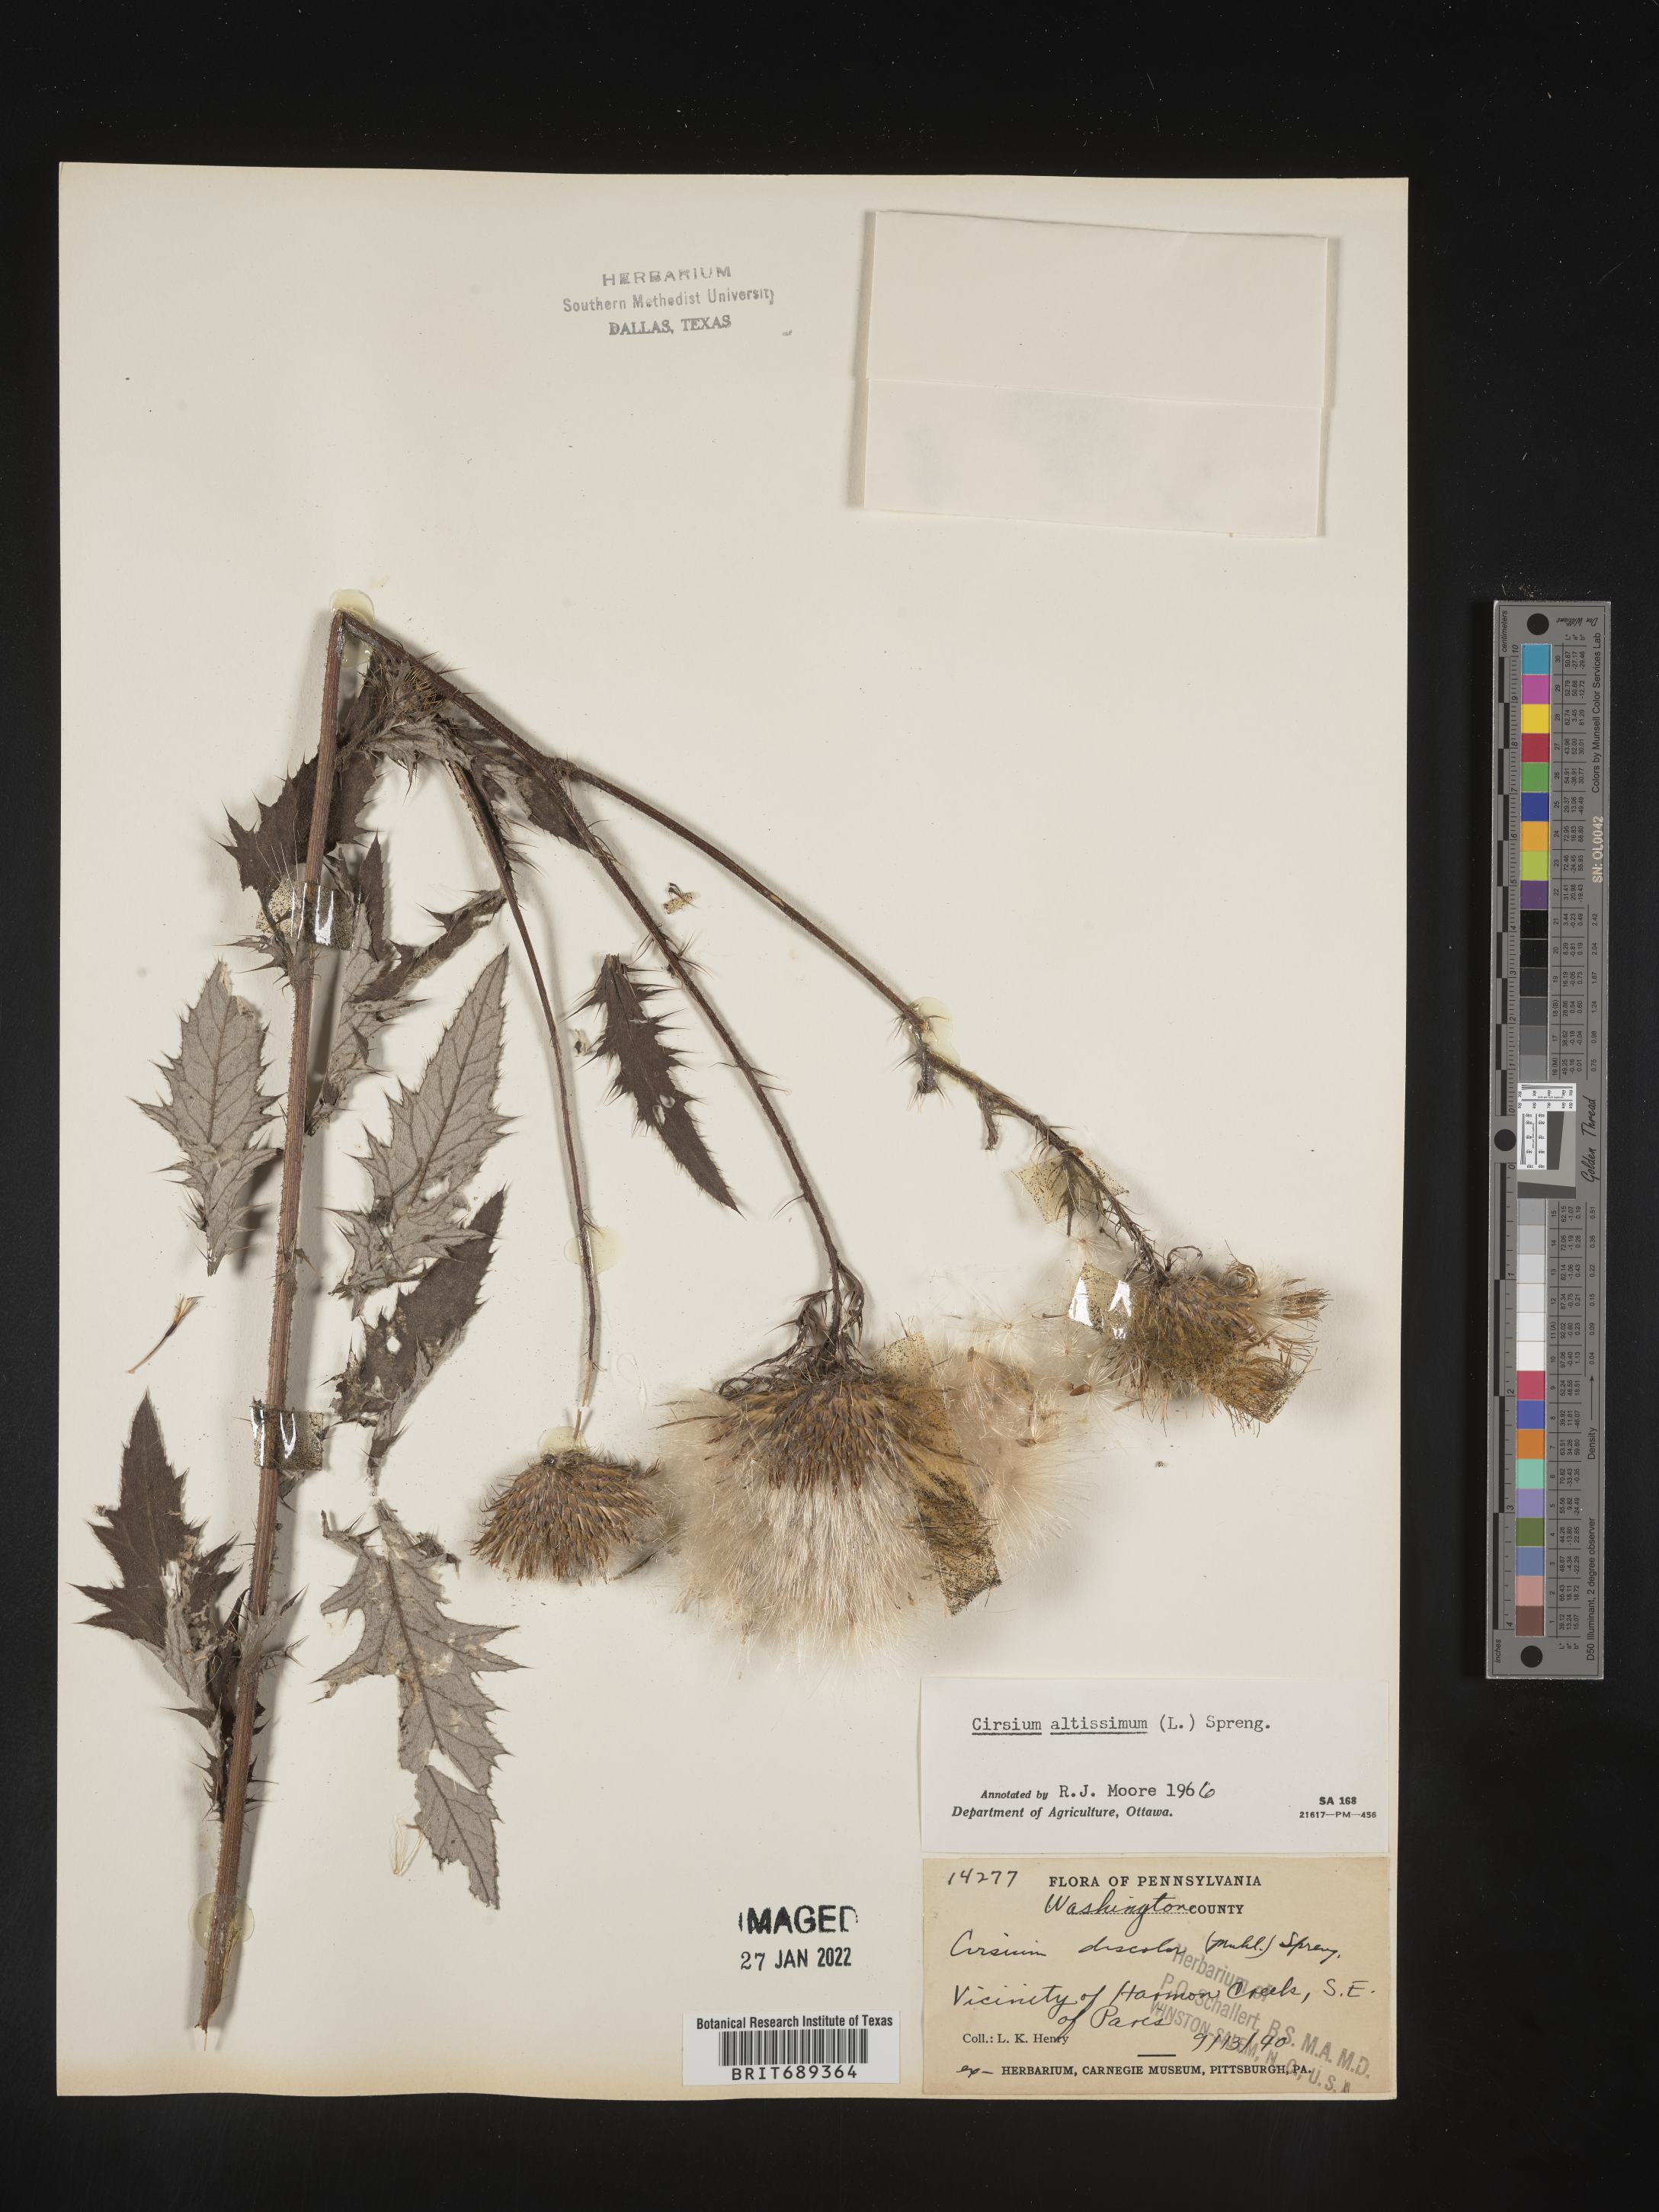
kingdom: Plantae
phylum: Tracheophyta
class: Magnoliopsida
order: Asterales
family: Asteraceae
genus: Cirsium
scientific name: Cirsium altissimum
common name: Roadside thistle
